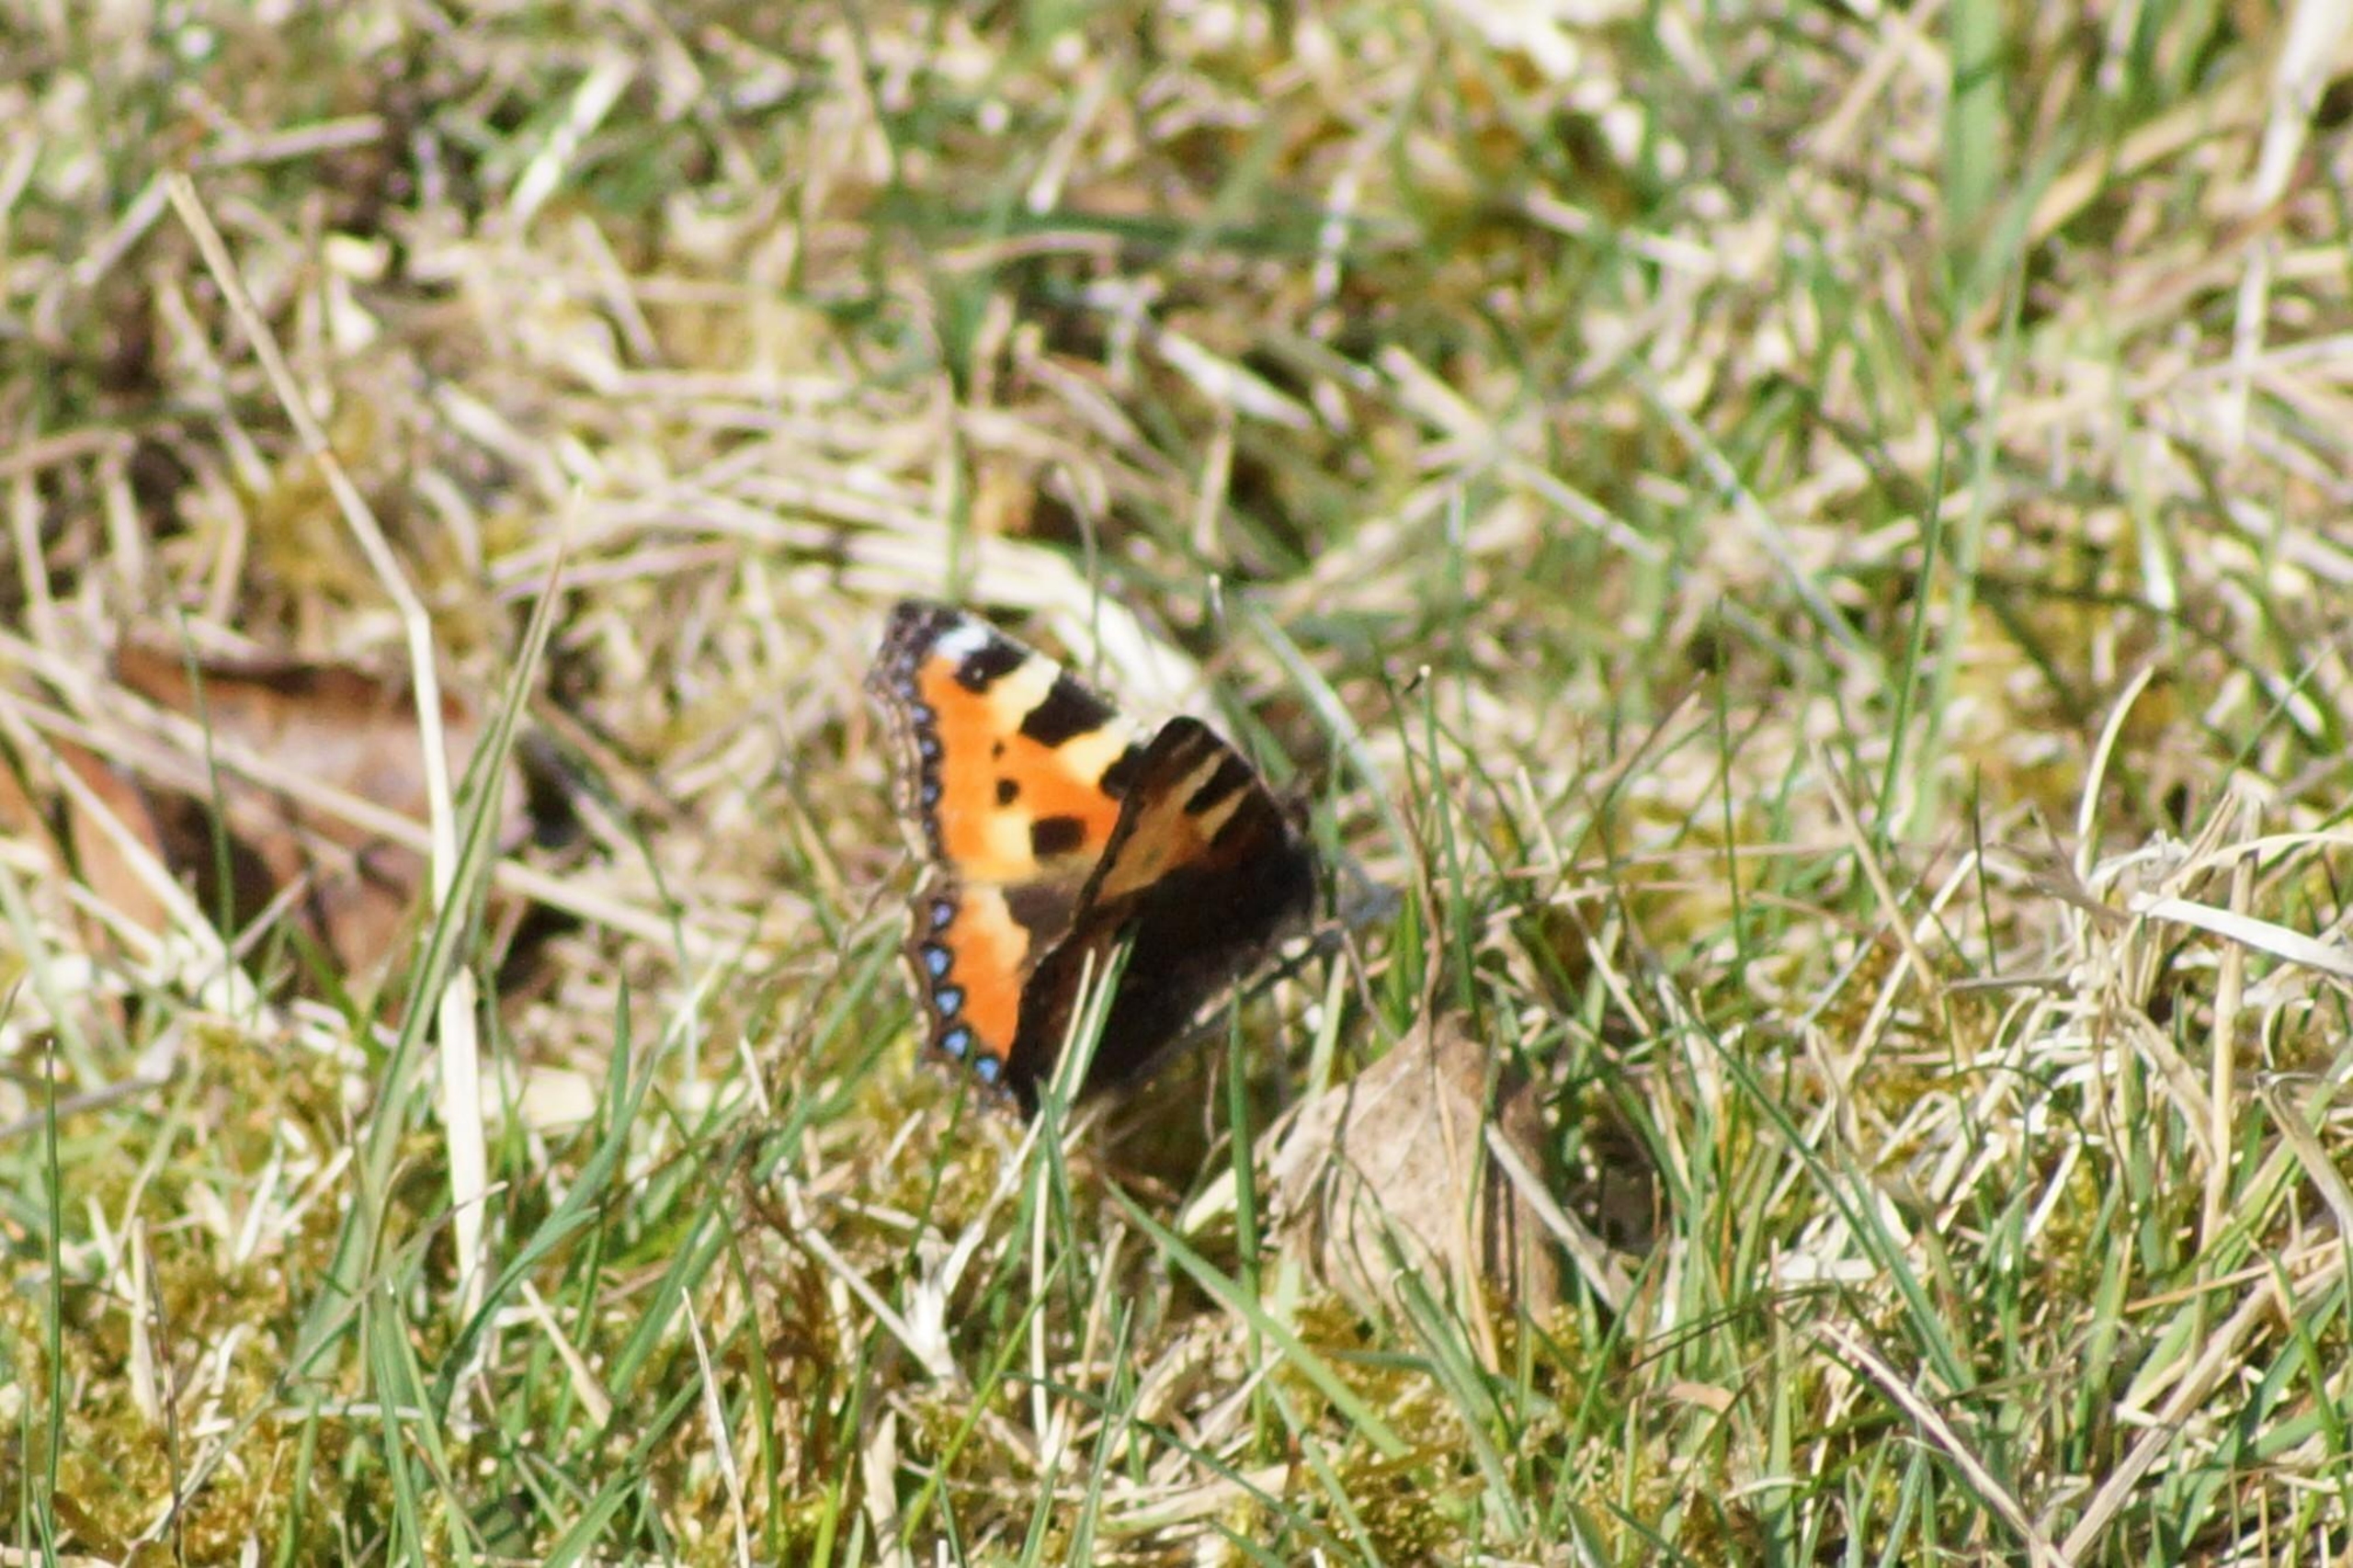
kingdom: Animalia
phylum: Arthropoda
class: Insecta
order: Lepidoptera
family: Nymphalidae
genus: Aglais
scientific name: Aglais urticae
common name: Nældens takvinge
